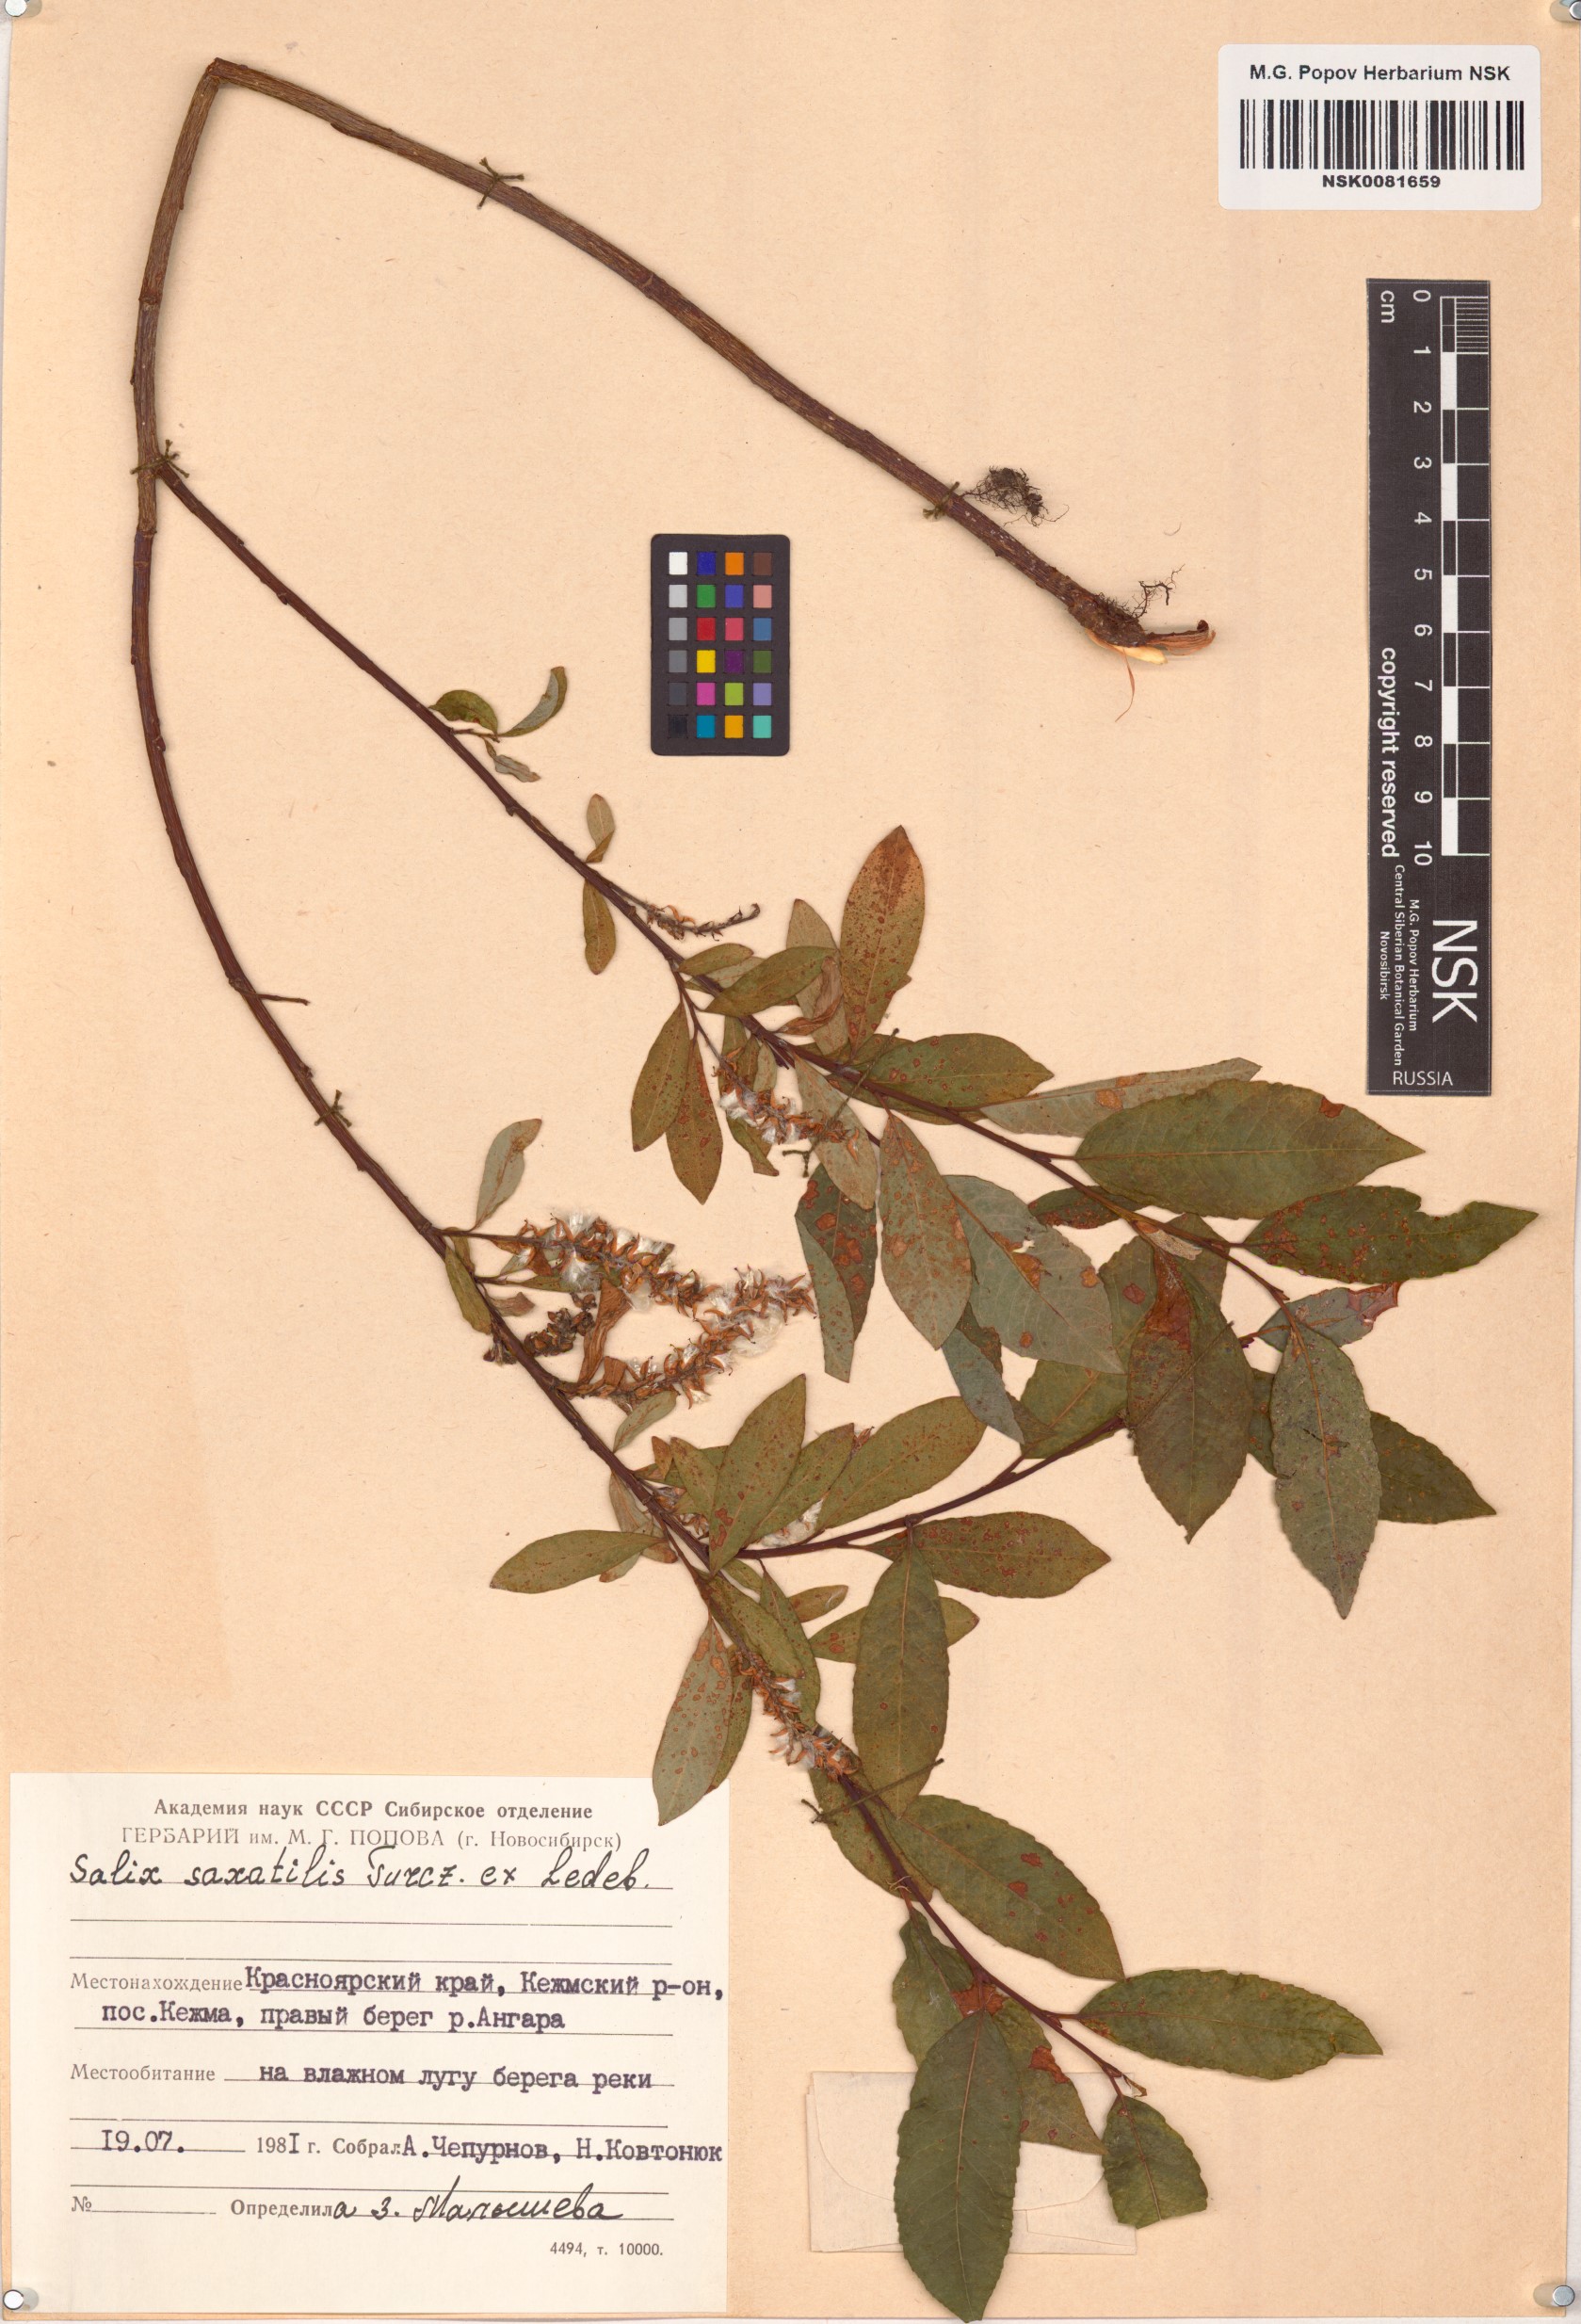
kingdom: Plantae
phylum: Tracheophyta
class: Magnoliopsida
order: Malpighiales
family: Salicaceae
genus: Salix
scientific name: Salix saxatilis
